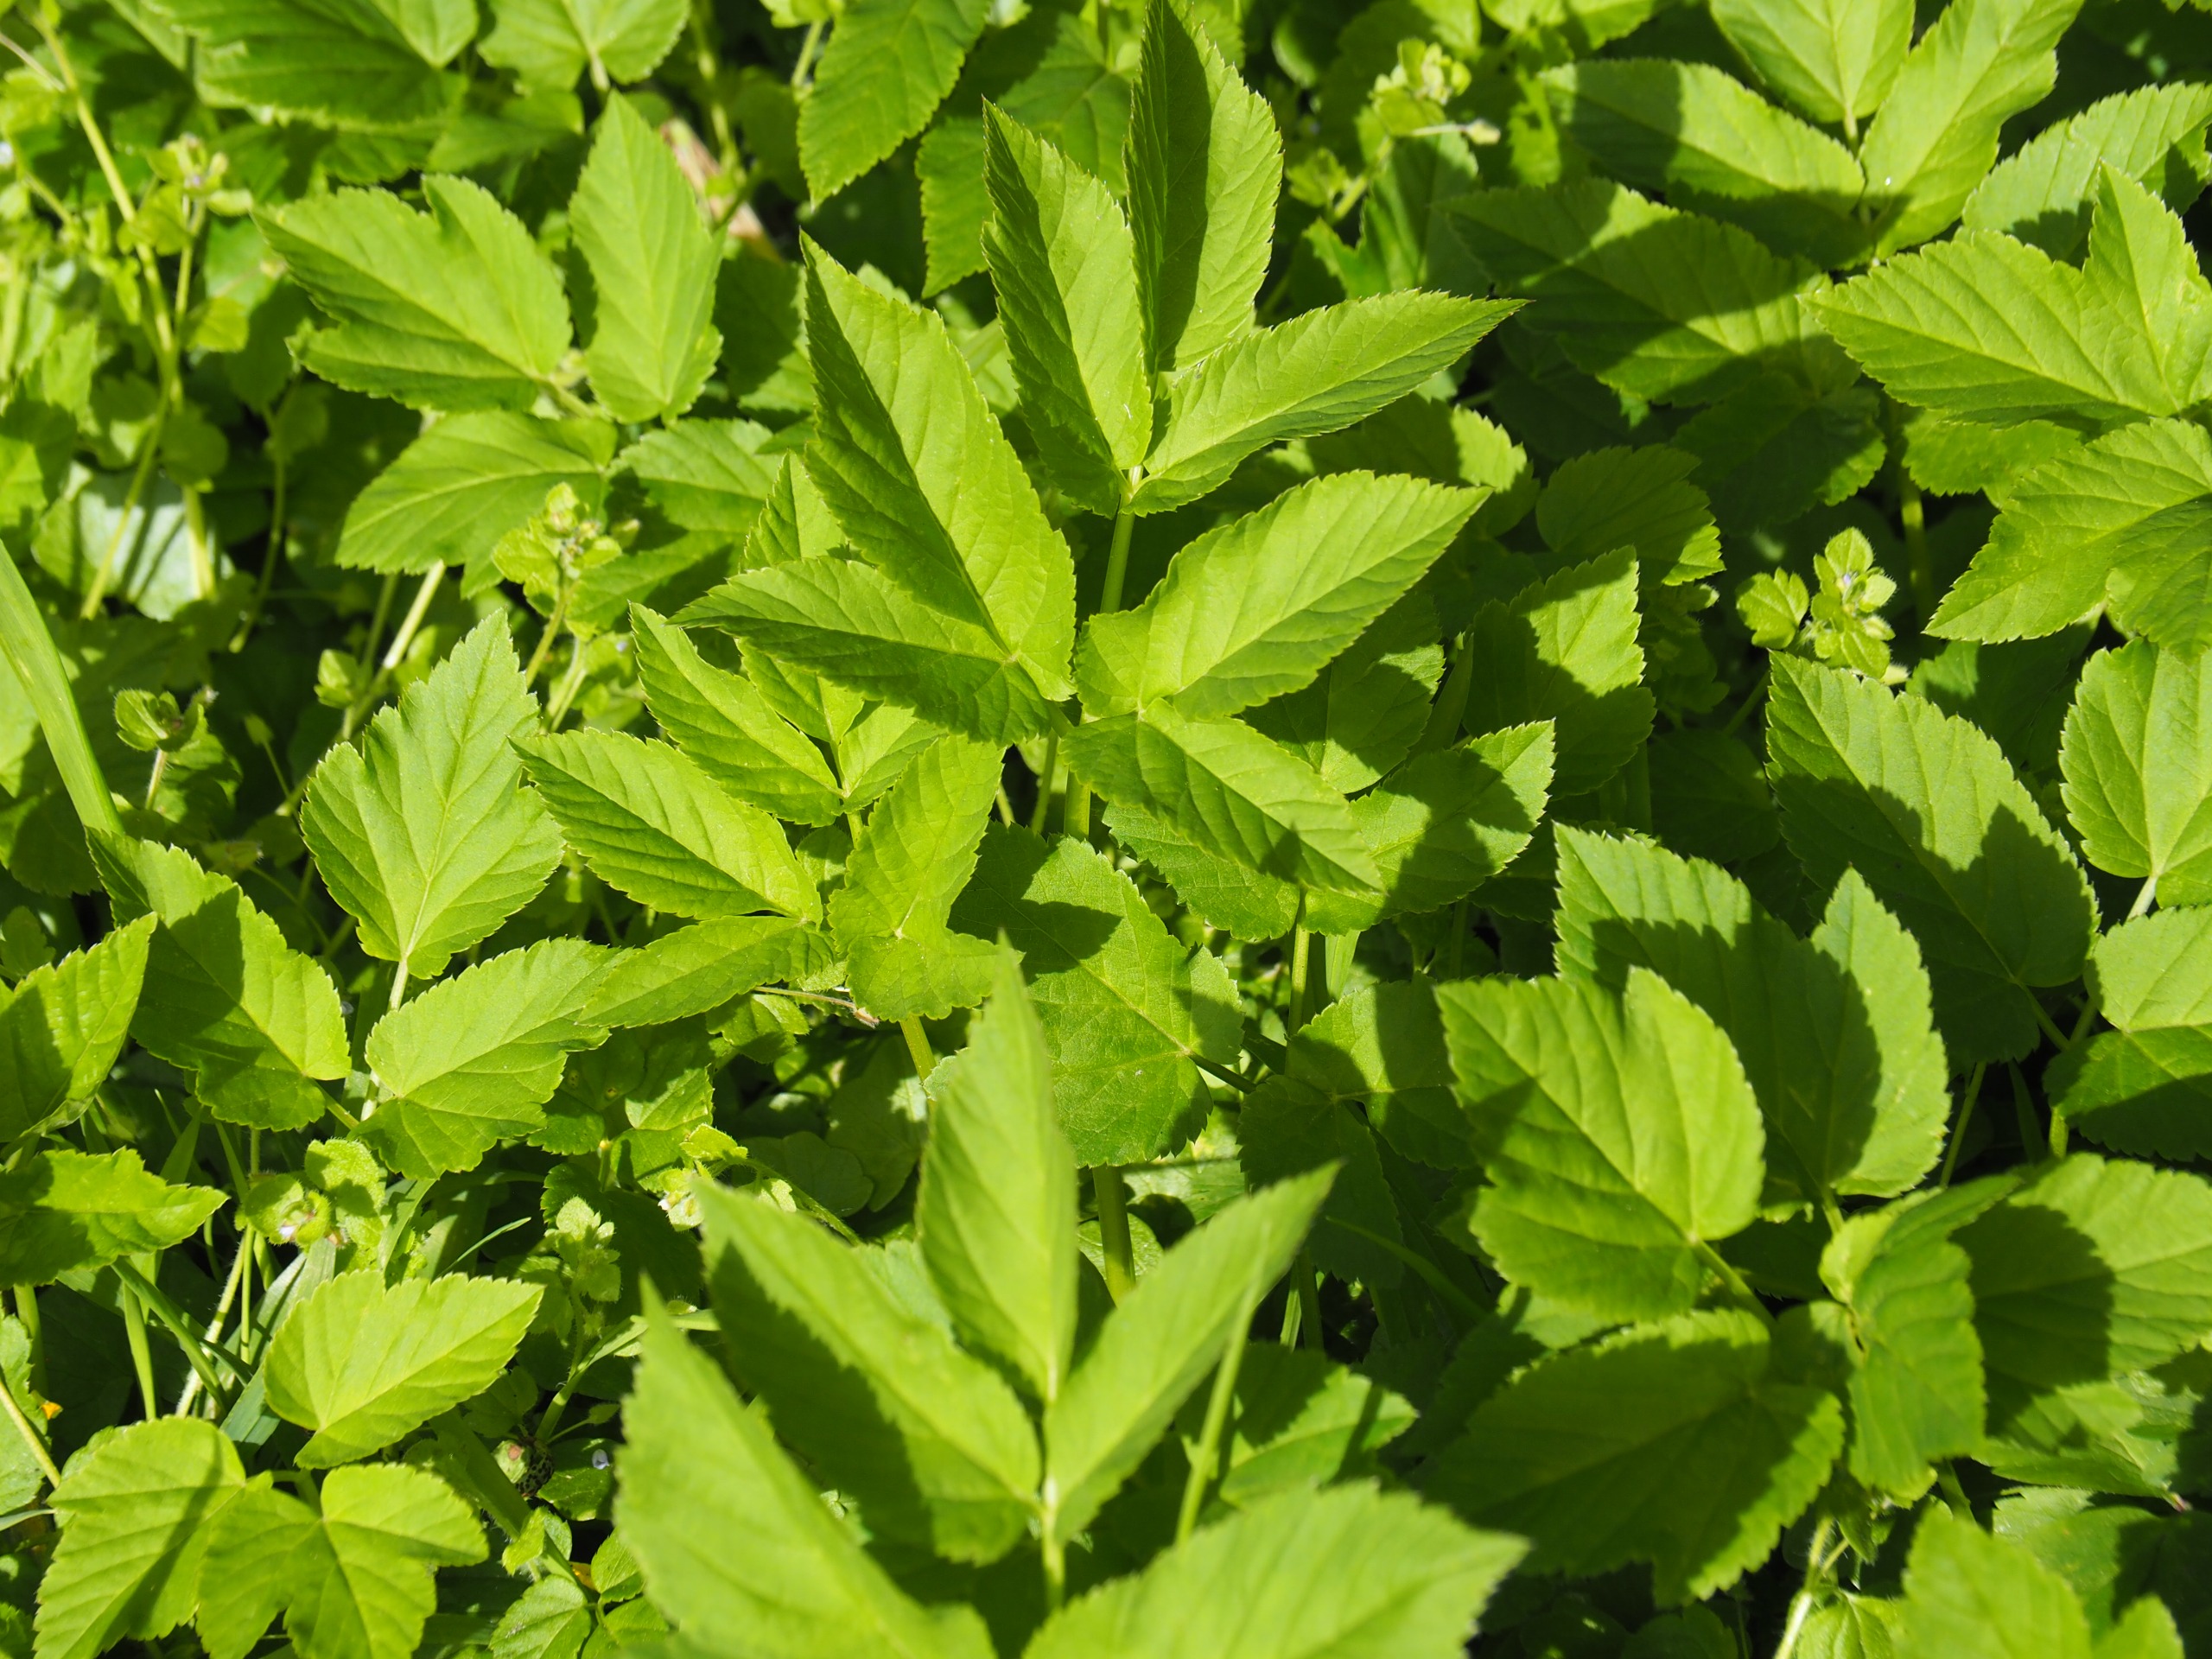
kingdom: Plantae
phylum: Tracheophyta
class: Magnoliopsida
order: Apiales
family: Apiaceae
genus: Aegopodium
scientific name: Aegopodium podagraria
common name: Skvalderkål
